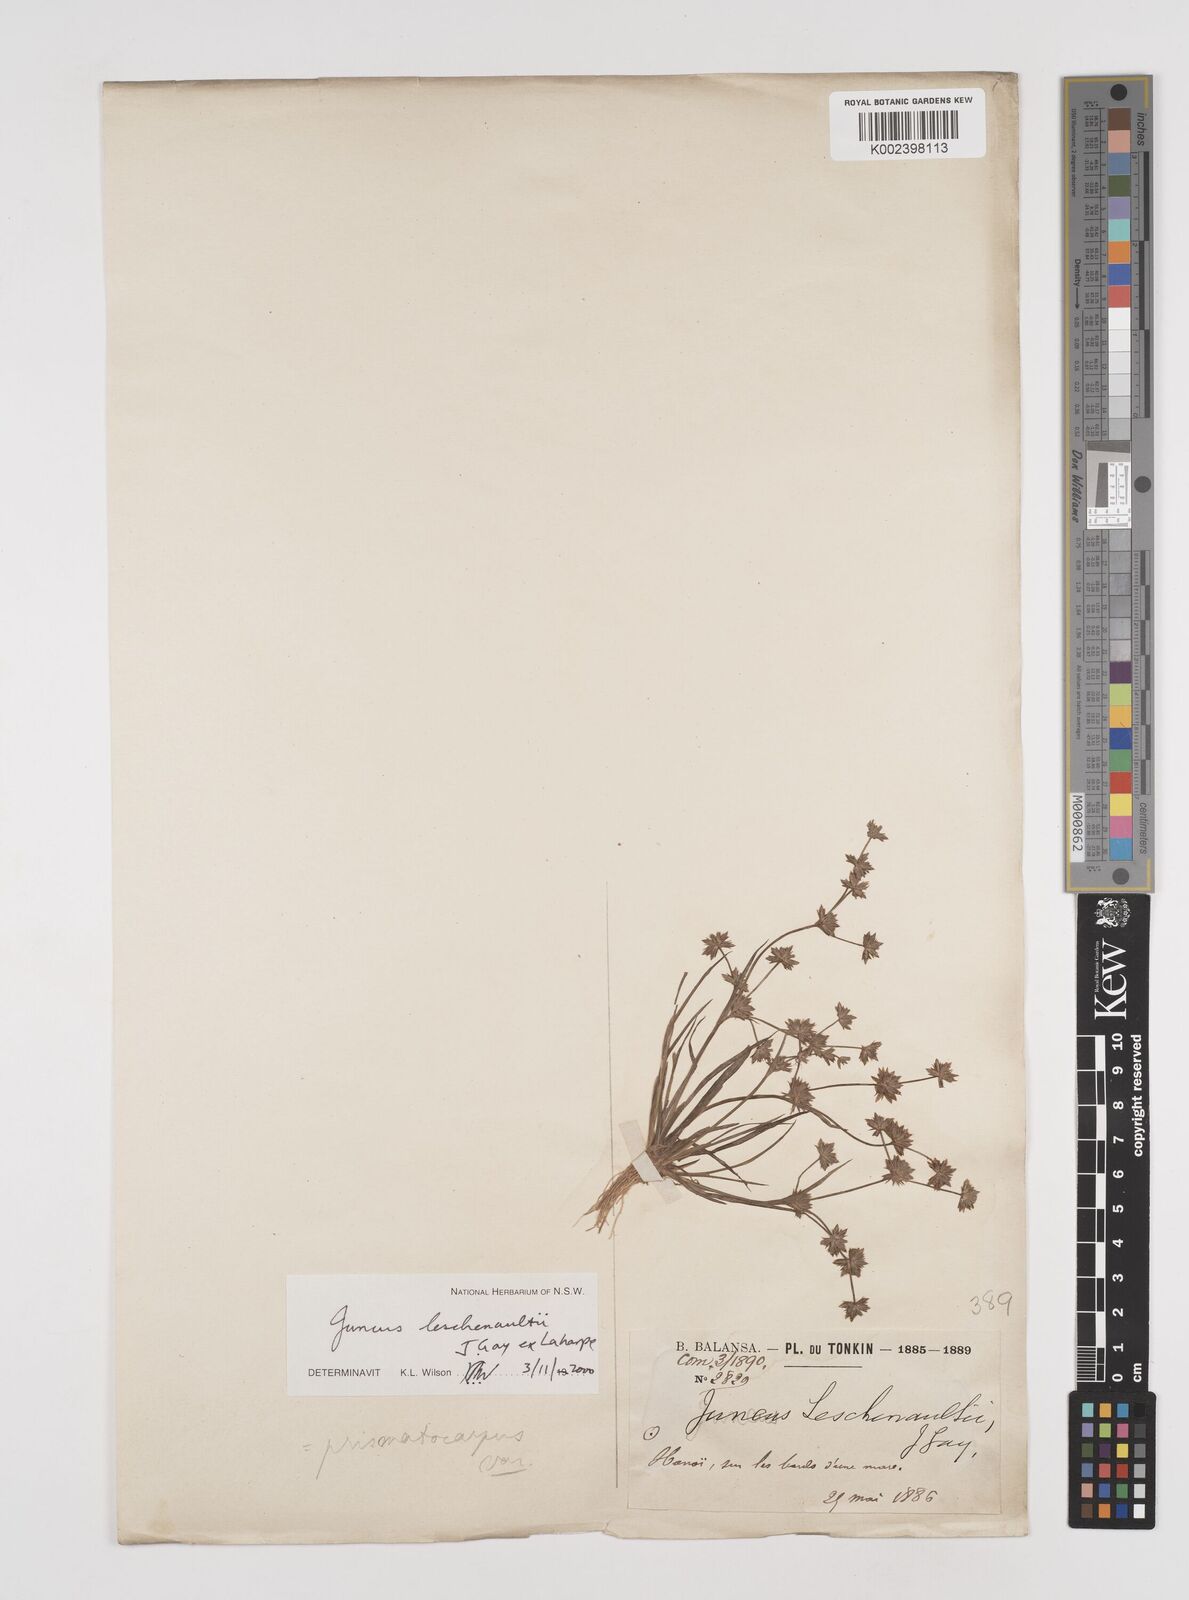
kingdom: Plantae
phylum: Tracheophyta
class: Liliopsida
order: Poales
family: Juncaceae
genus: Juncus
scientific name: Juncus prismatocarpus
